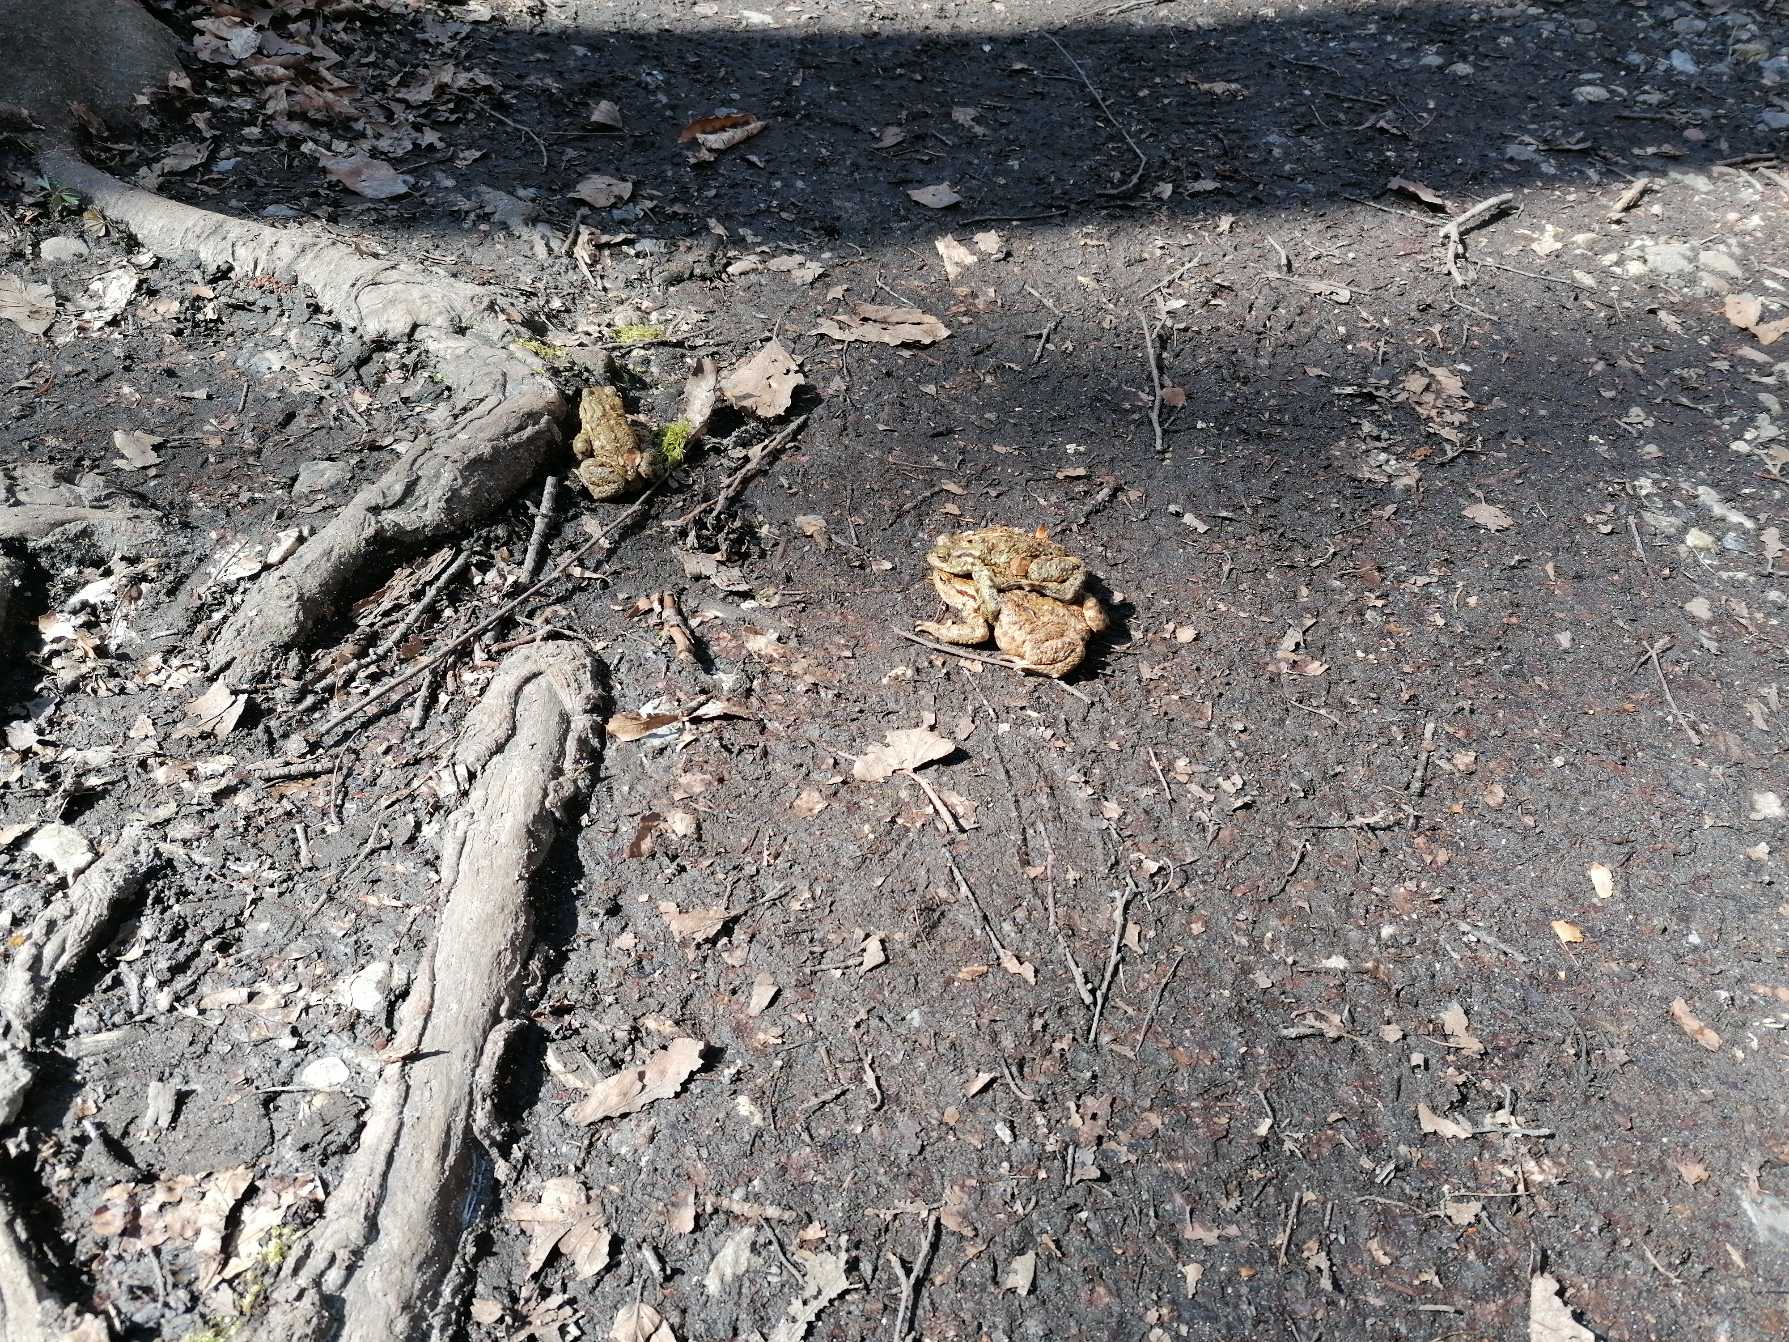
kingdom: Animalia
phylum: Chordata
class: Amphibia
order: Anura
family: Bufonidae
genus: Bufo
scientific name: Bufo bufo
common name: Skrubtudse
